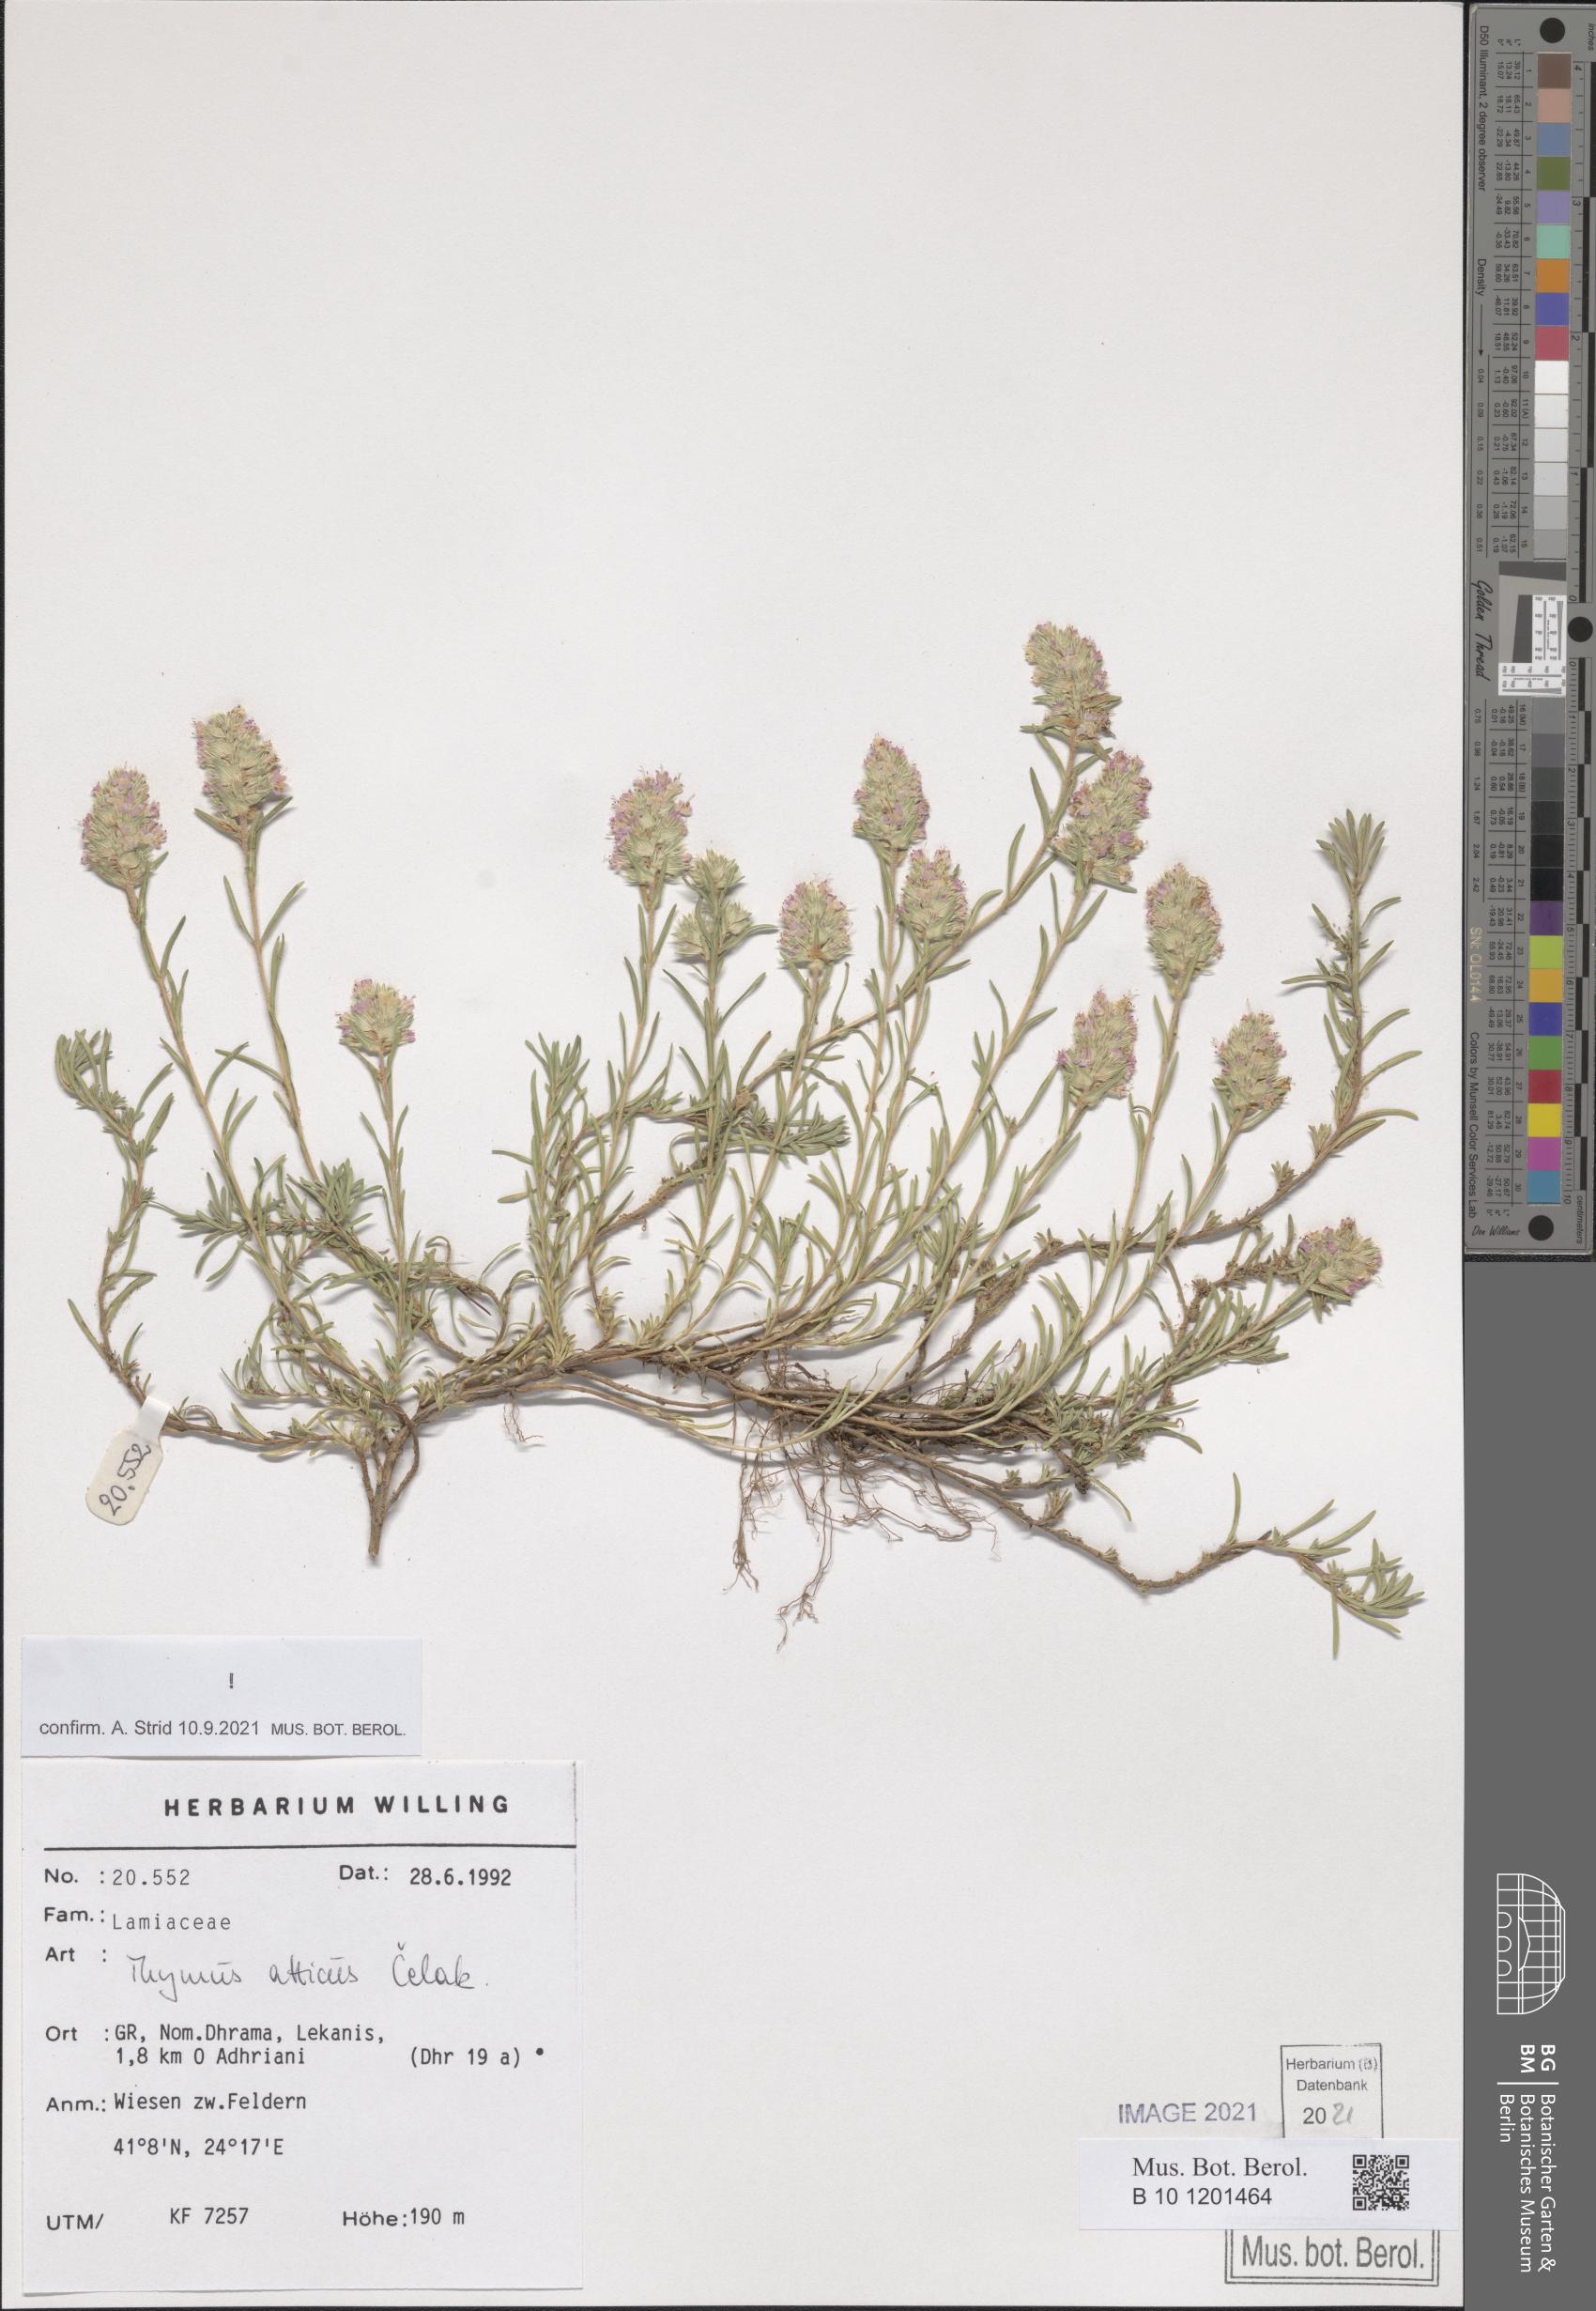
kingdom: Plantae
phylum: Tracheophyta
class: Magnoliopsida
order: Lamiales
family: Lamiaceae
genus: Thymus
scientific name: Thymus atticus
